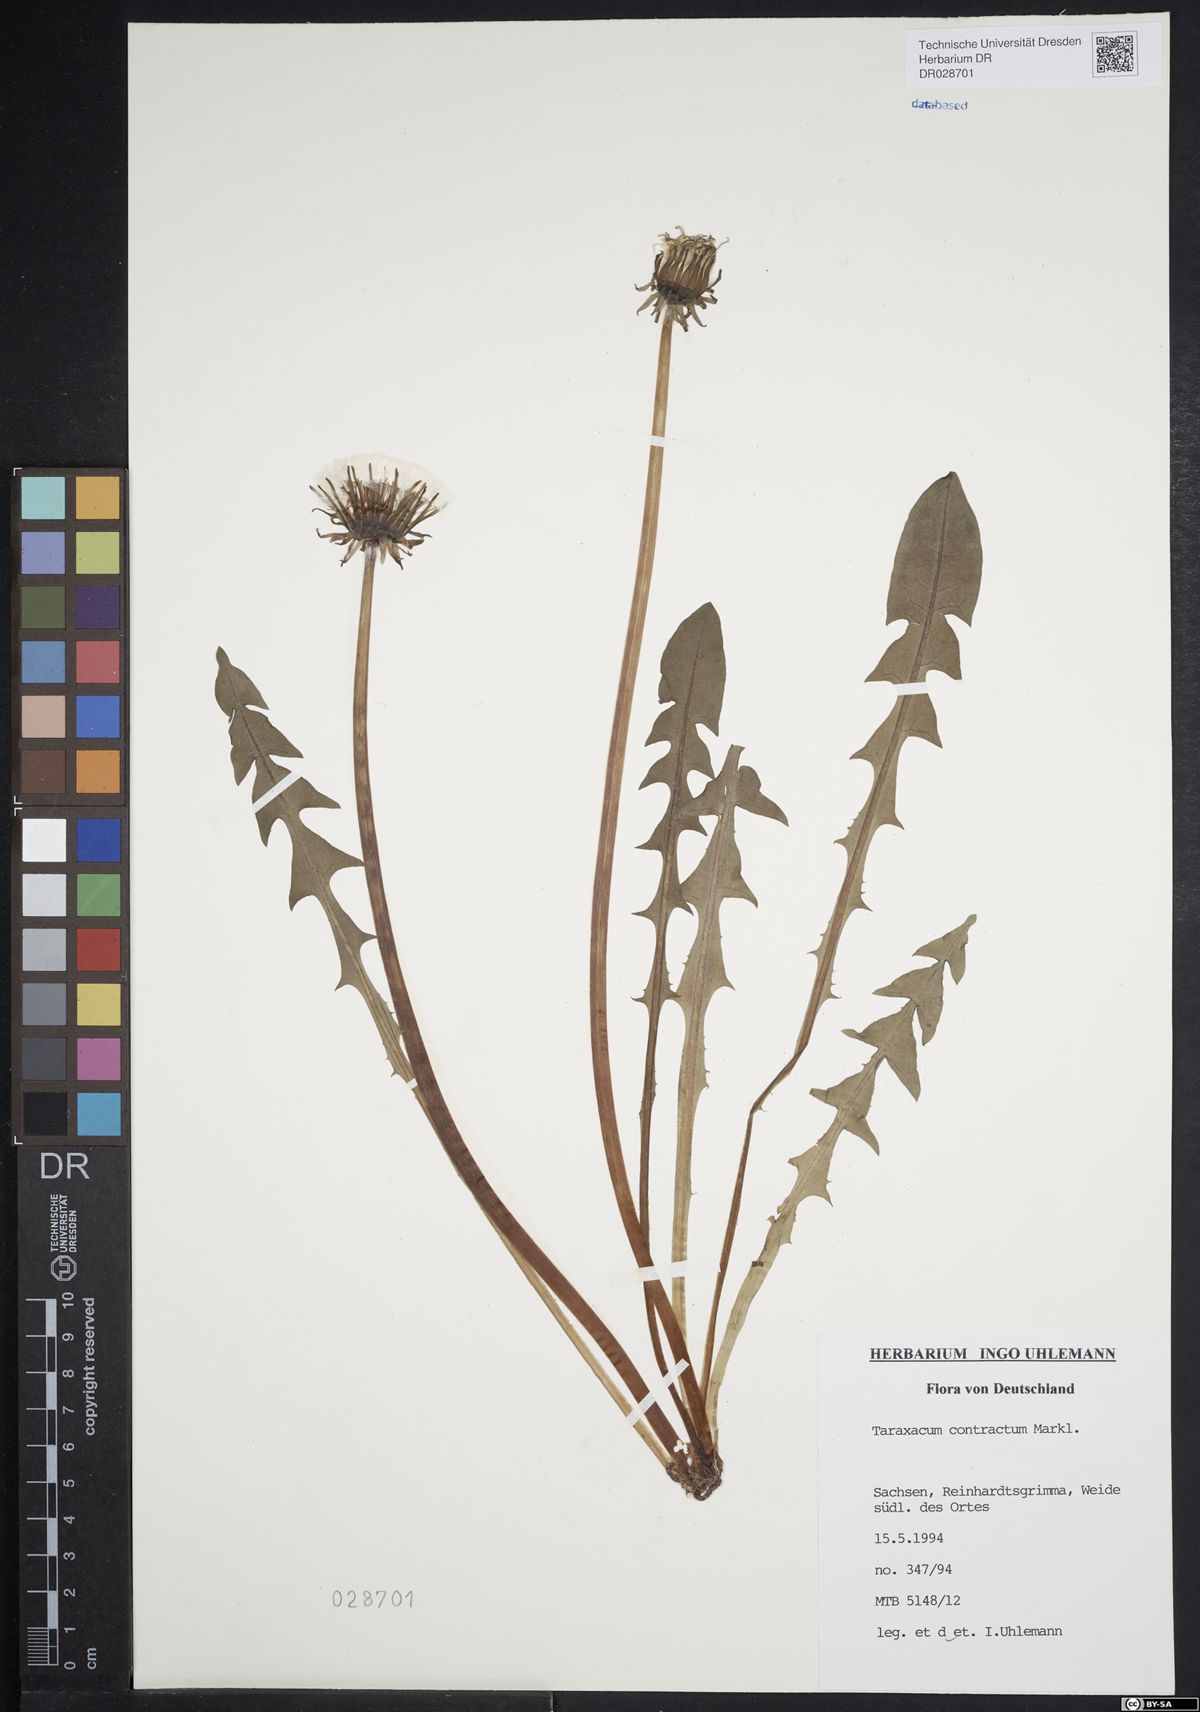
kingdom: Plantae
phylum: Tracheophyta
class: Magnoliopsida
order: Asterales
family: Asteraceae
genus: Taraxacum
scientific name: Taraxacum contractum
